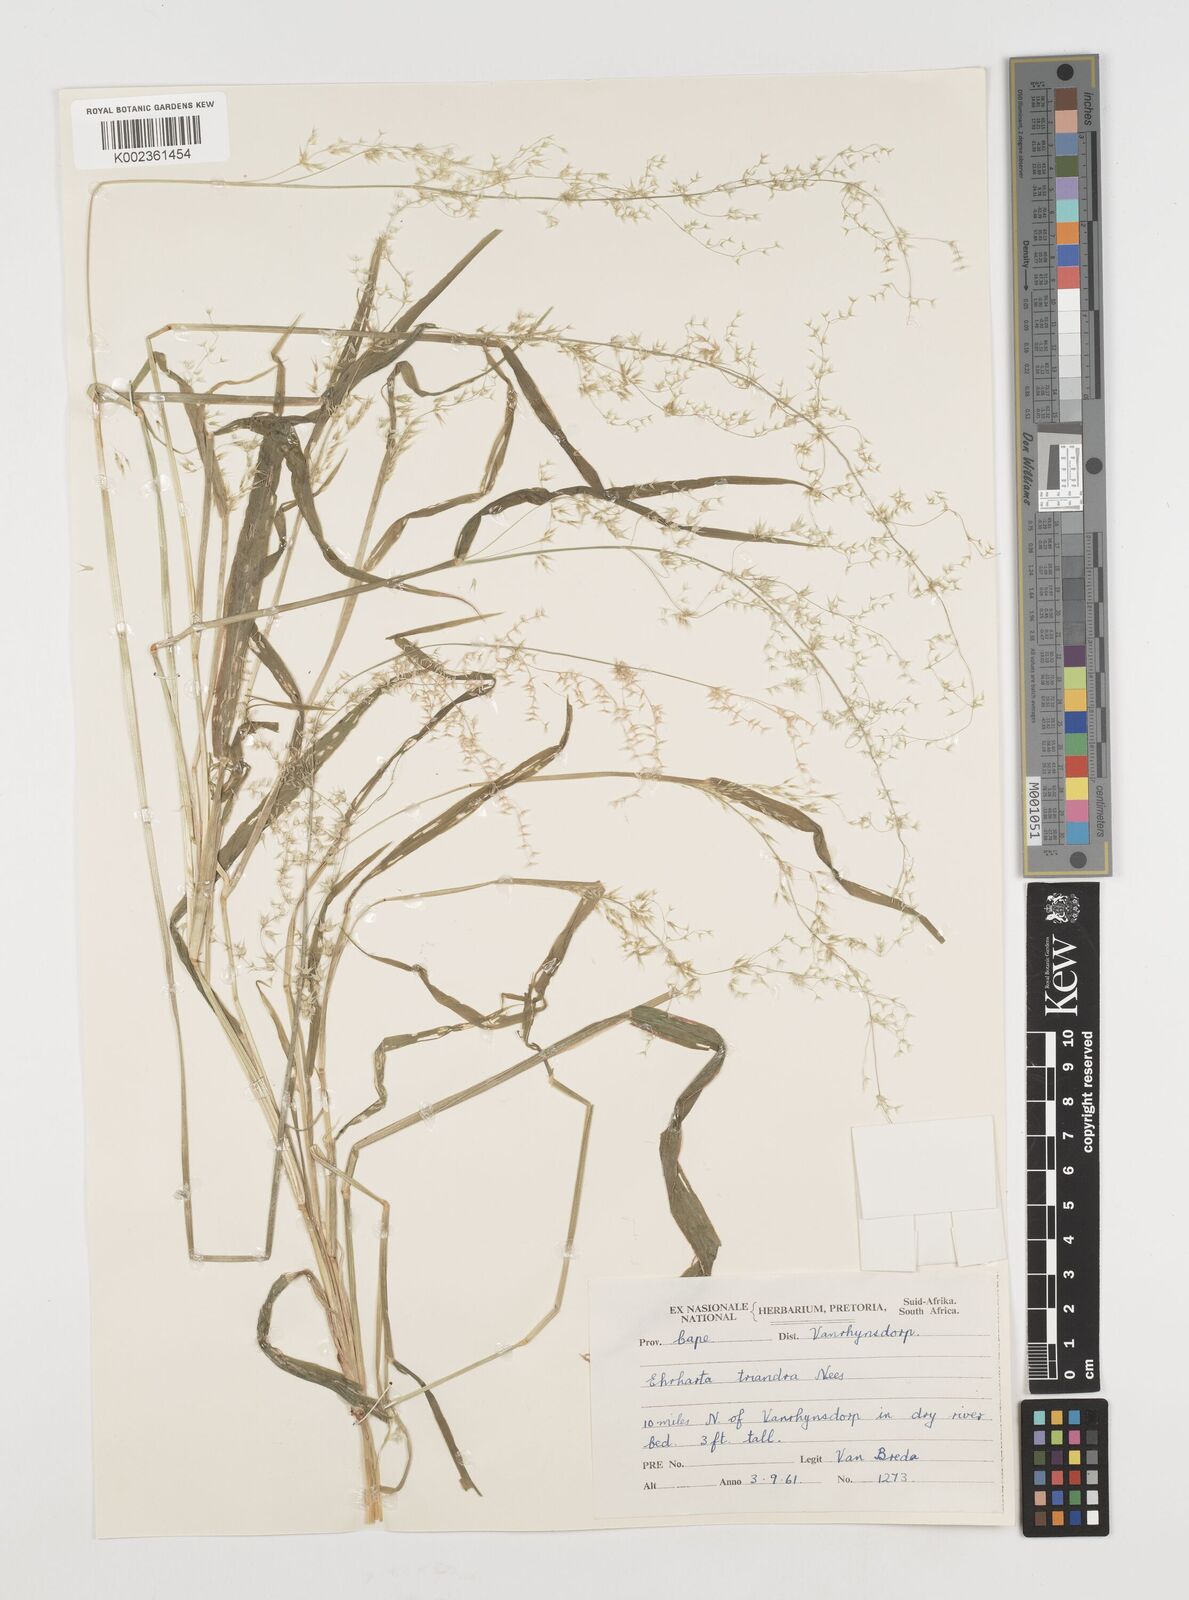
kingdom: Plantae
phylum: Tracheophyta
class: Liliopsida
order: Poales
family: Poaceae
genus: Ehrharta
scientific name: Ehrharta triandra
